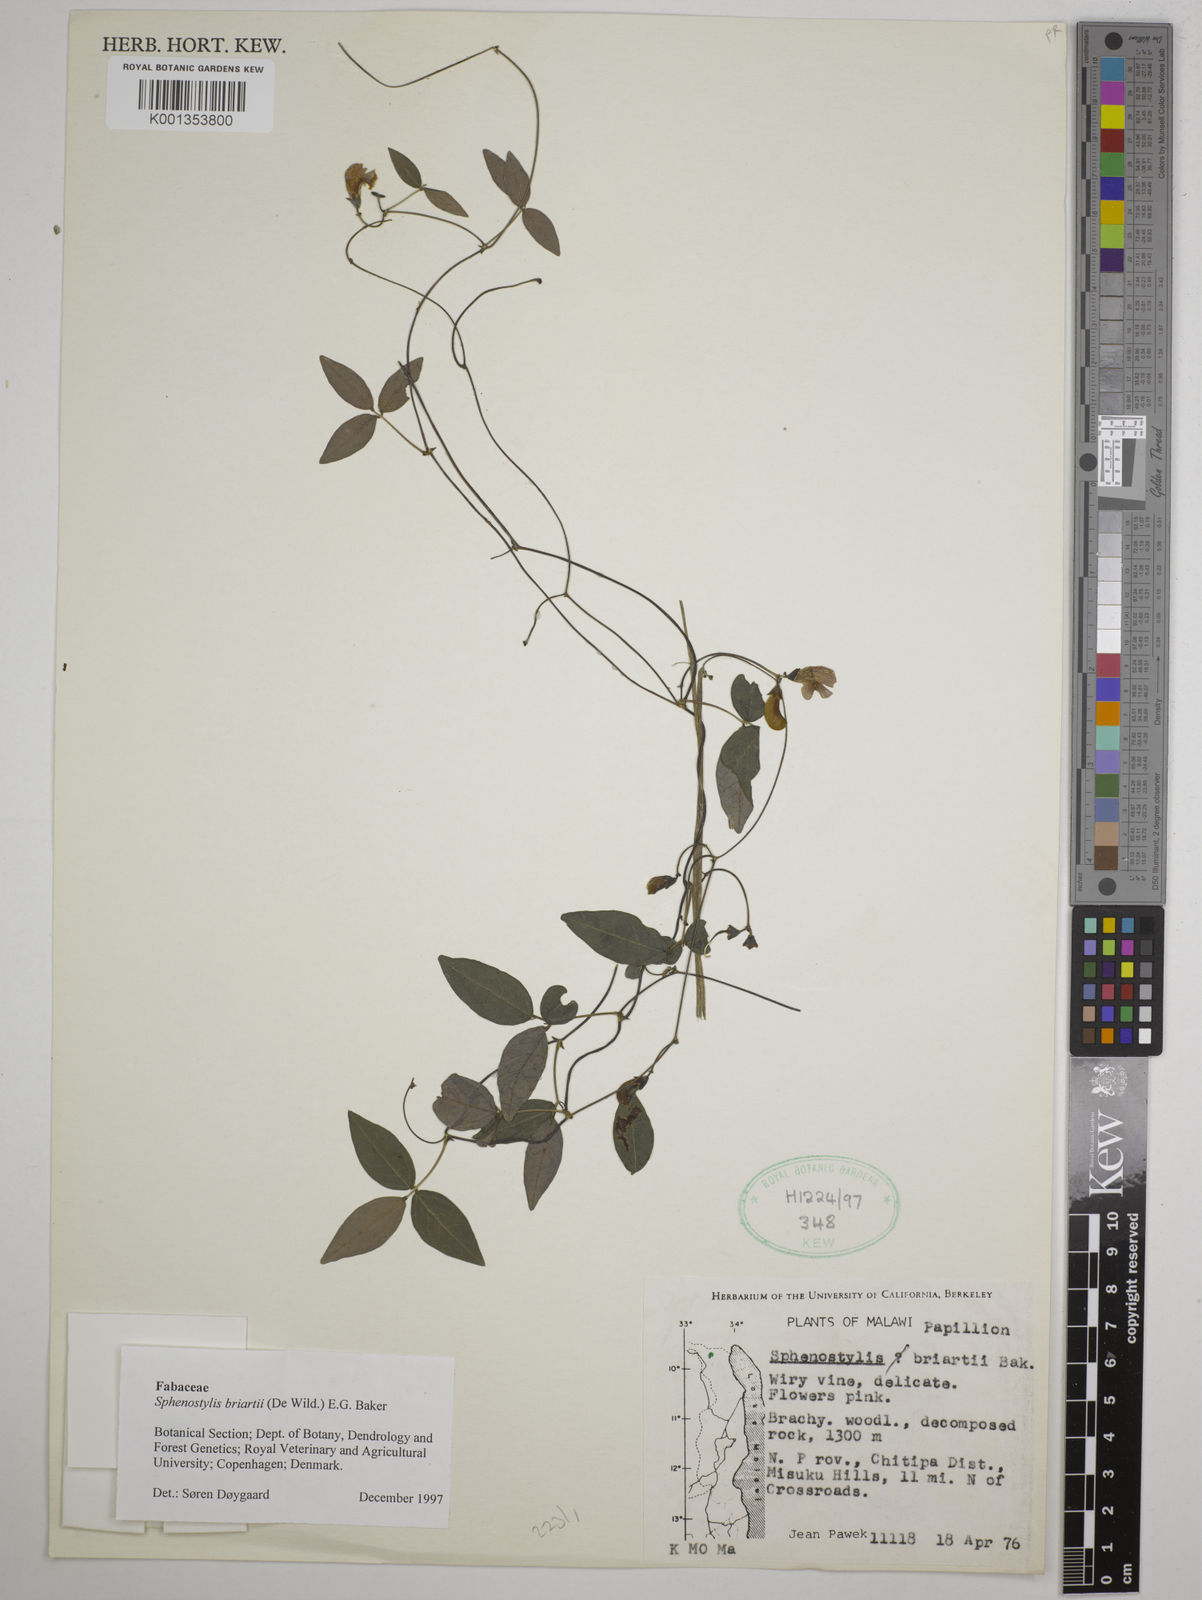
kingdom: Plantae
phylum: Tracheophyta
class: Magnoliopsida
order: Fabales
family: Fabaceae
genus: Sphenostylis
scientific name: Sphenostylis briartii
